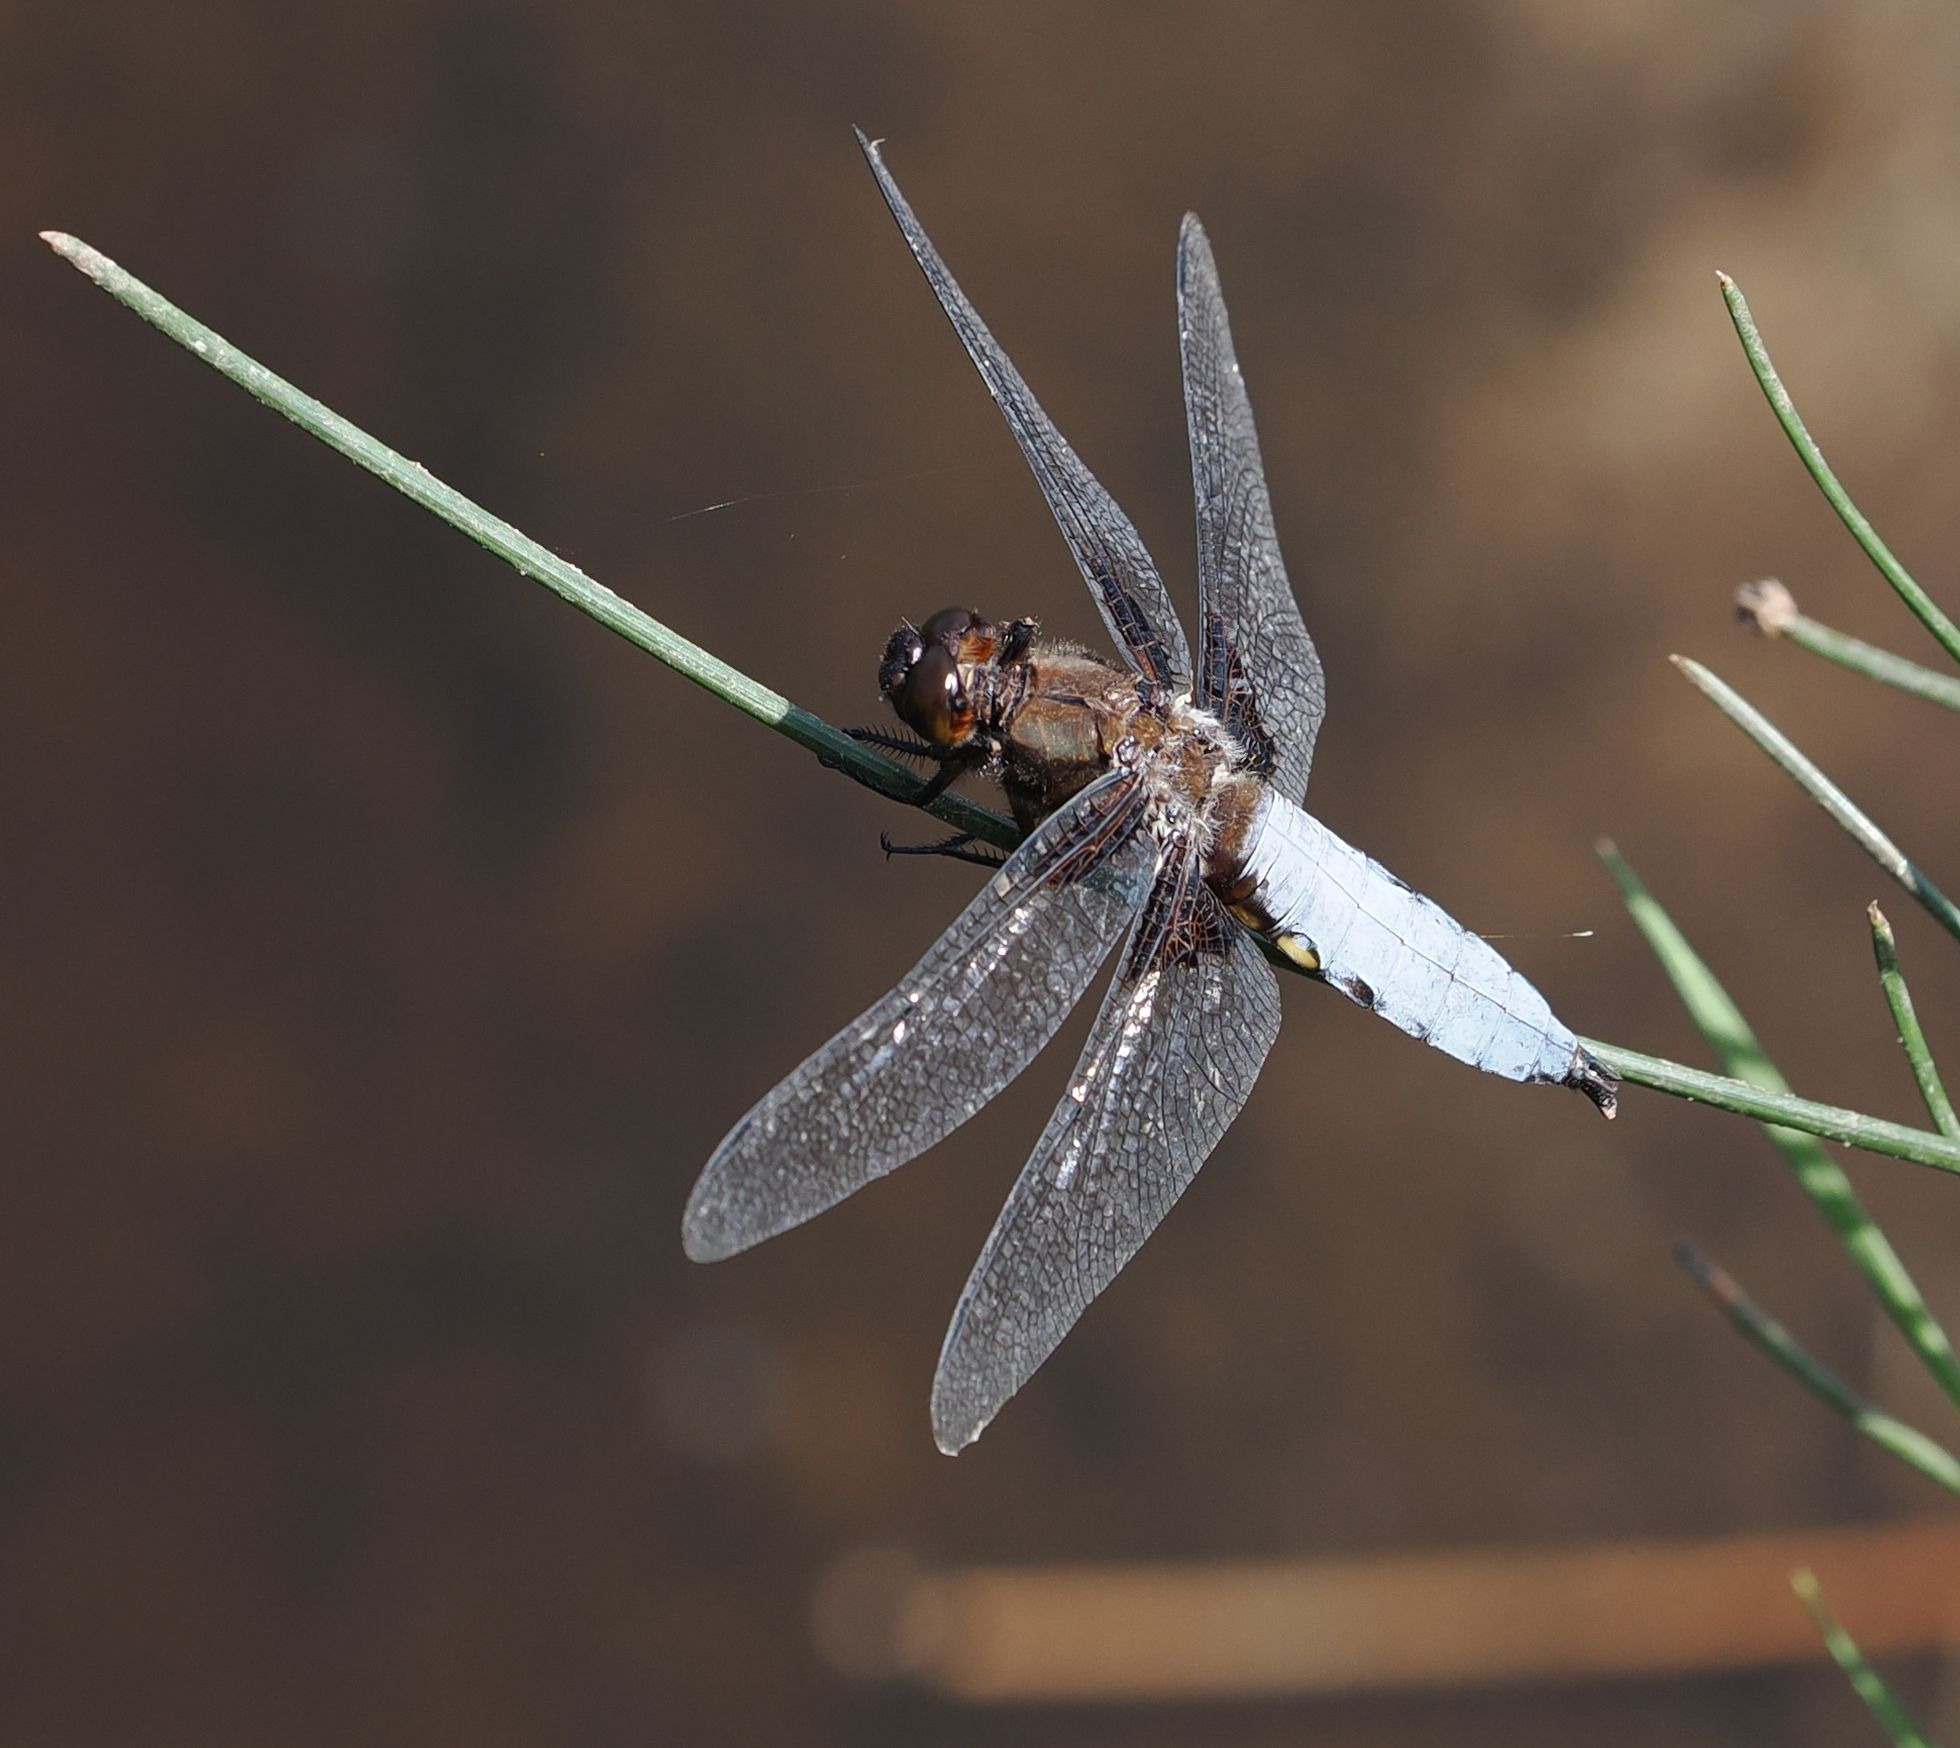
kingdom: Animalia
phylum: Arthropoda
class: Insecta
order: Odonata
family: Libellulidae
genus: Libellula
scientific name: Libellula depressa
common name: Blå libel
